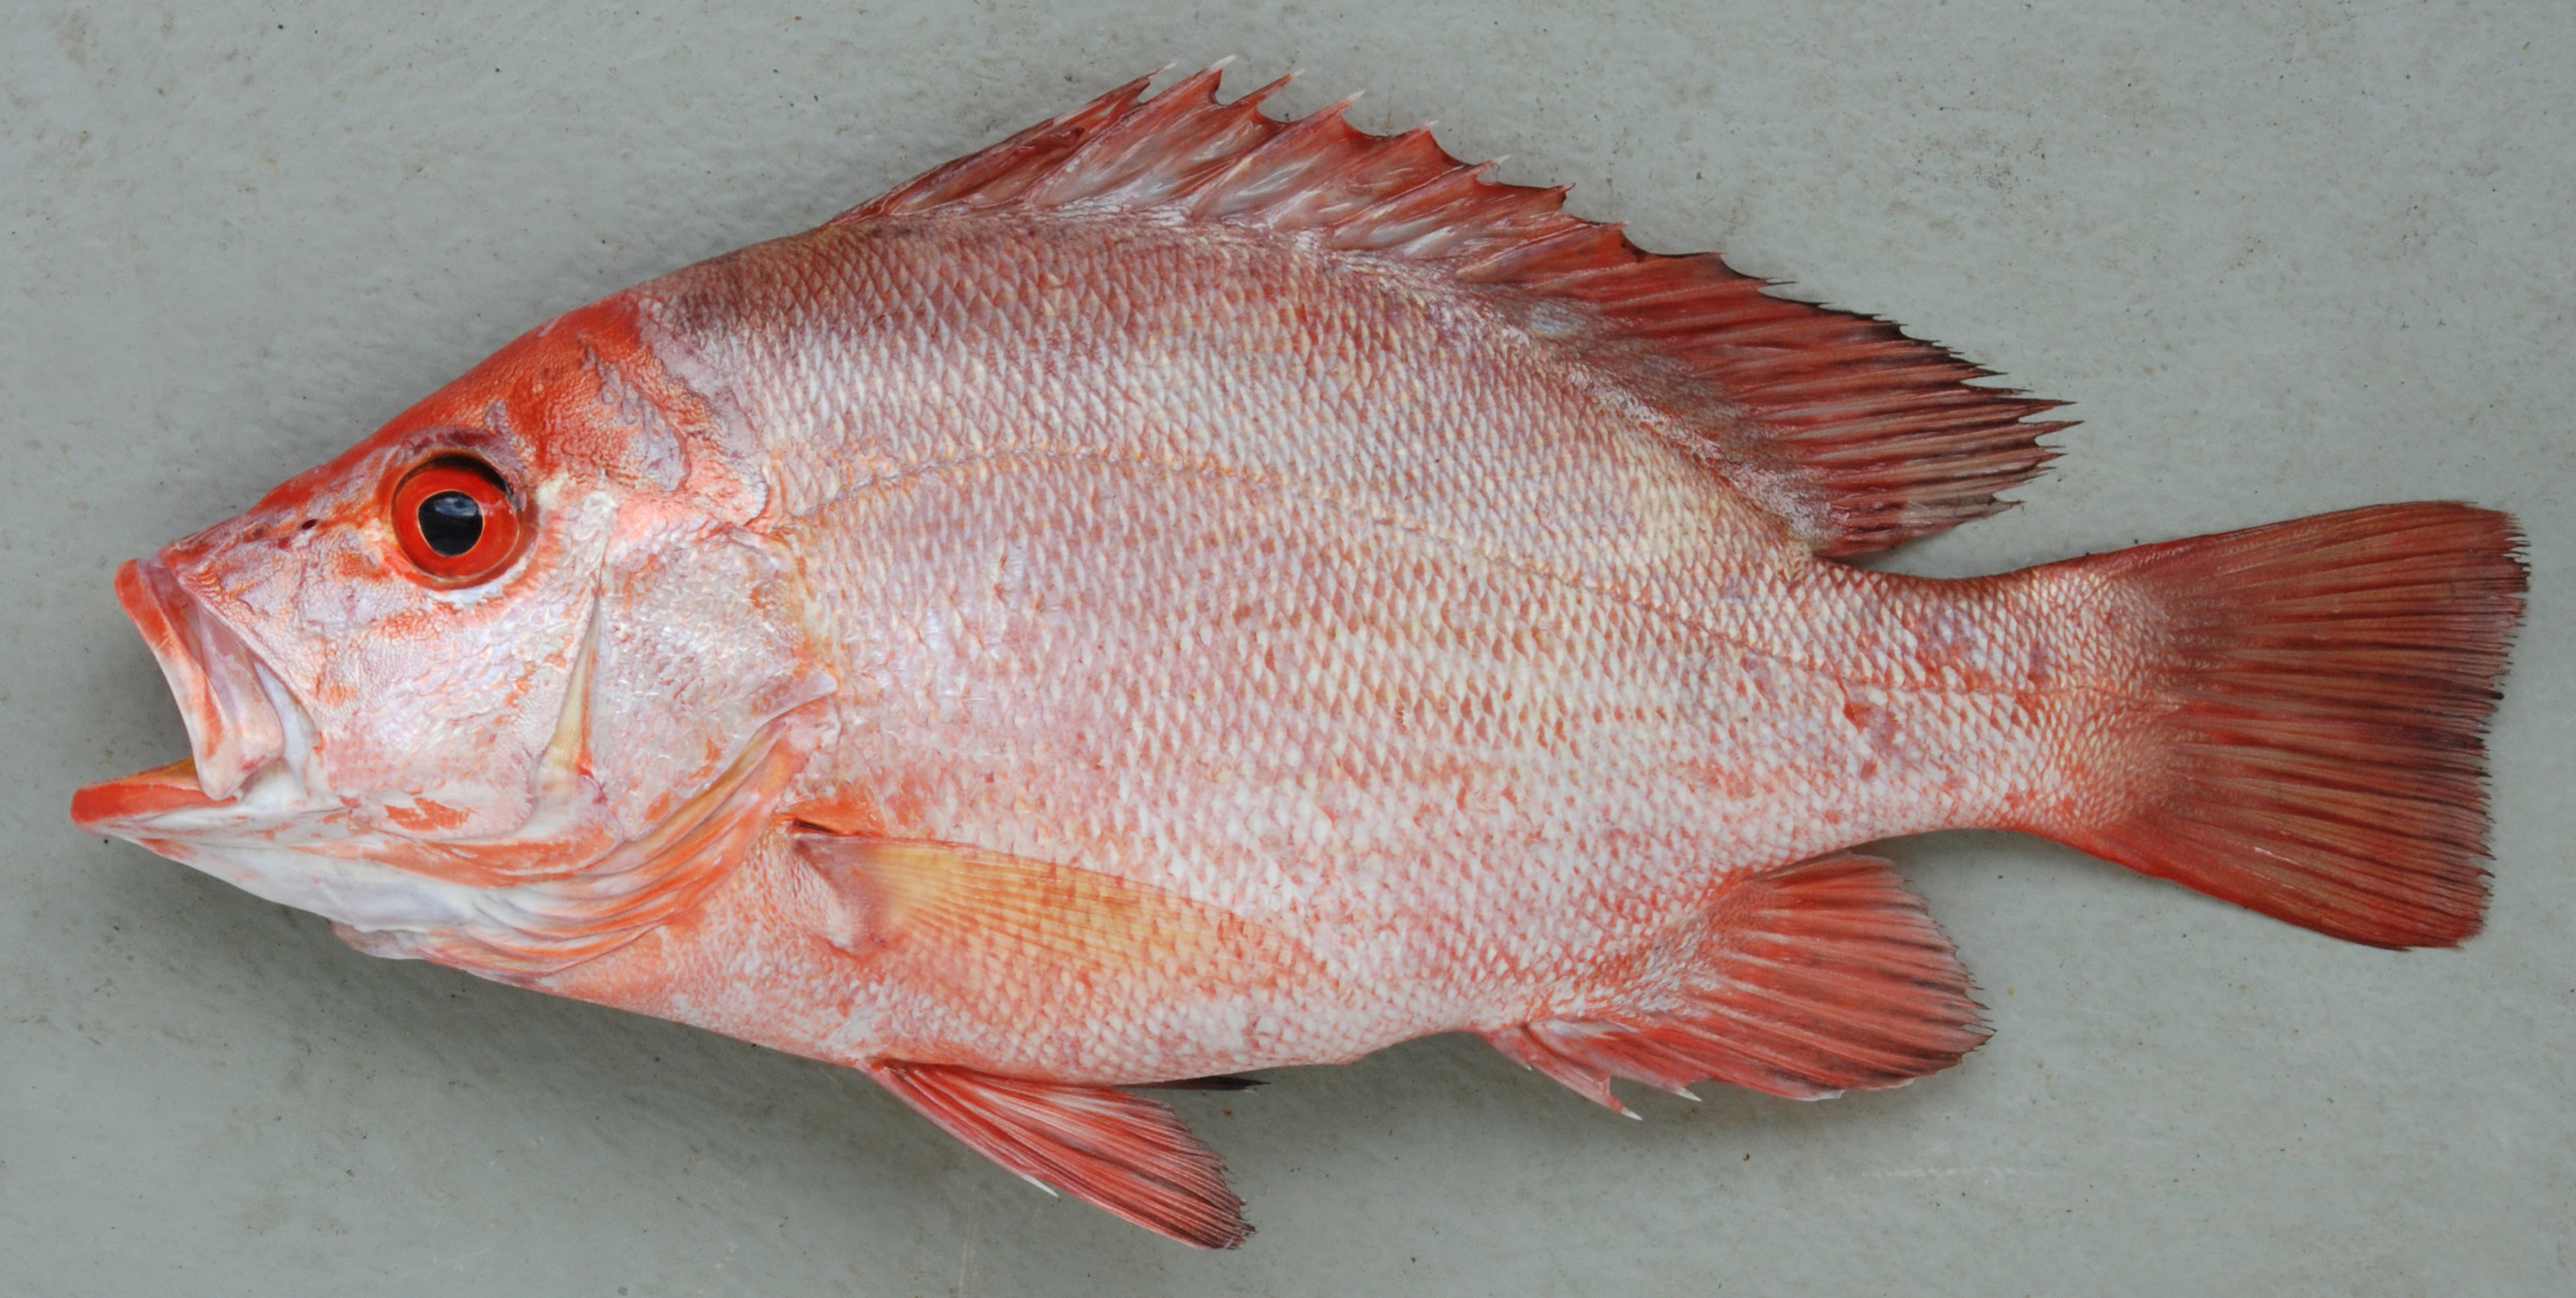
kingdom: Animalia
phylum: Chordata
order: Perciformes
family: Lutjanidae
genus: Lutjanus
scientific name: Lutjanus guilcheri
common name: Yellowfin red snapper
